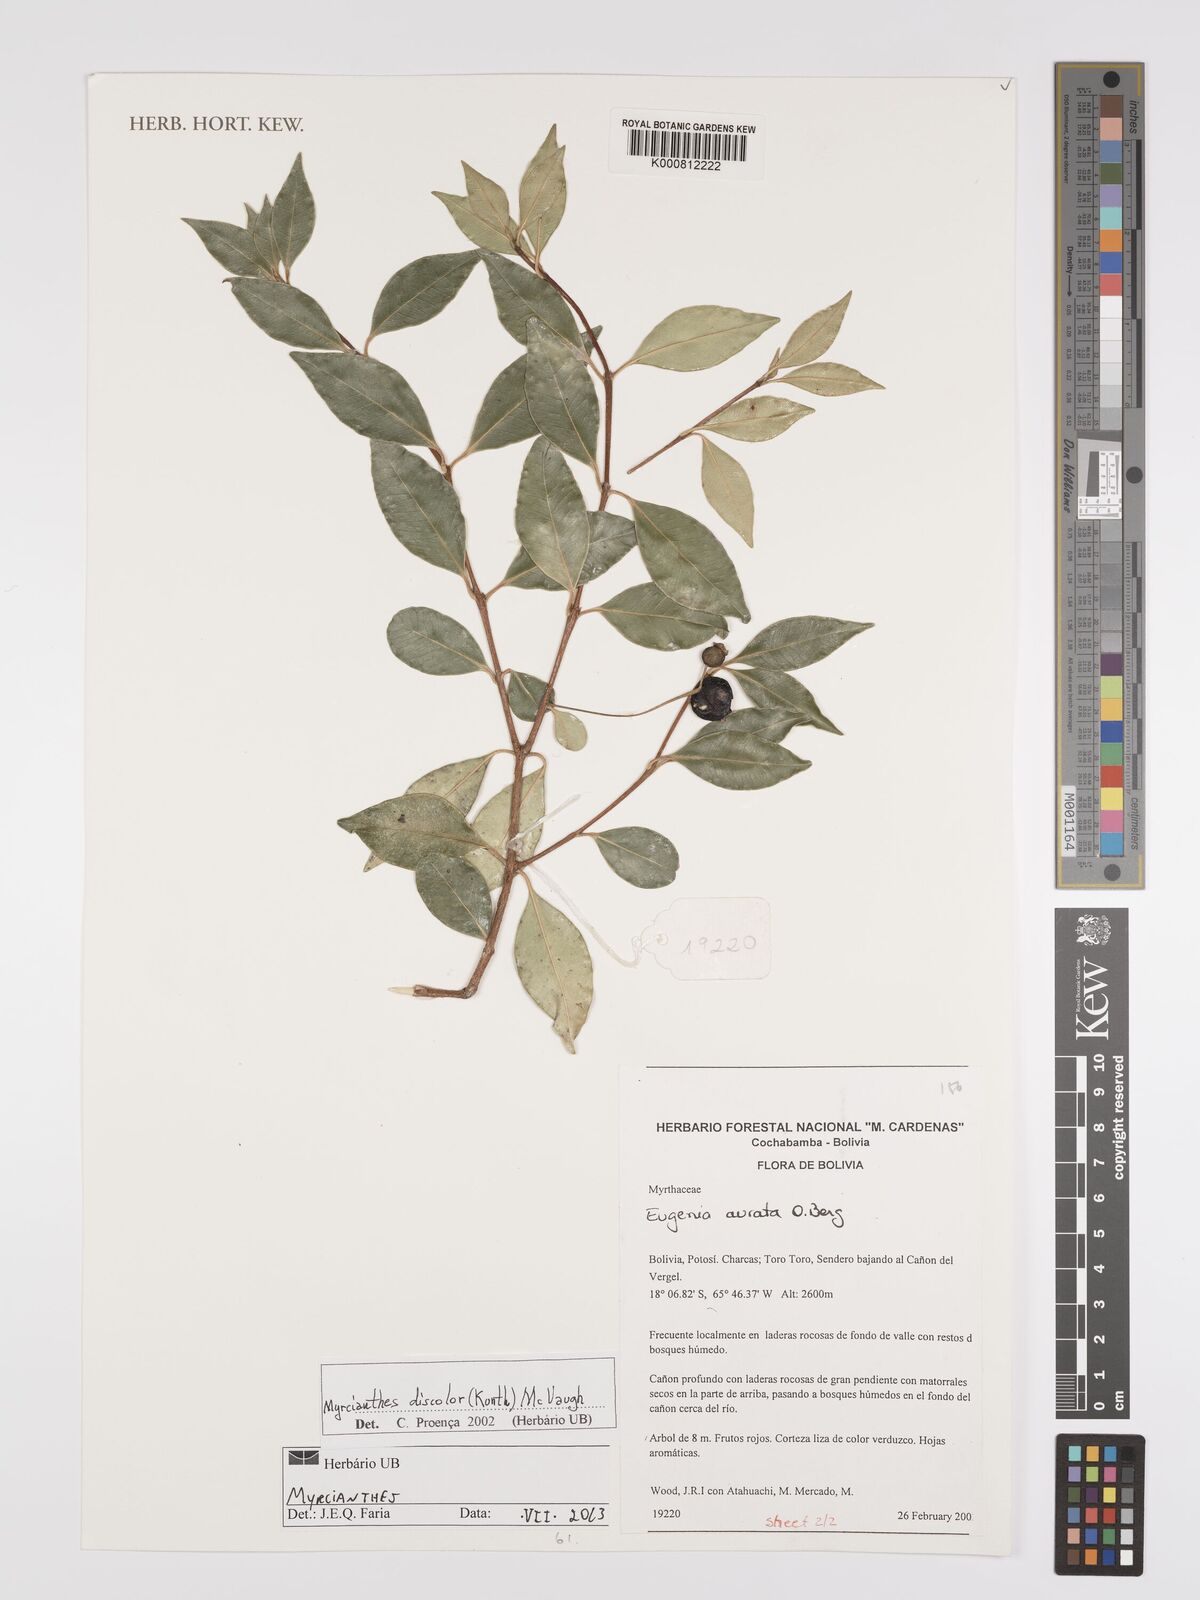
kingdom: Plantae
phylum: Tracheophyta
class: Magnoliopsida
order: Myrtales
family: Myrtaceae
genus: Myrcianthes
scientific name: Myrcianthes
